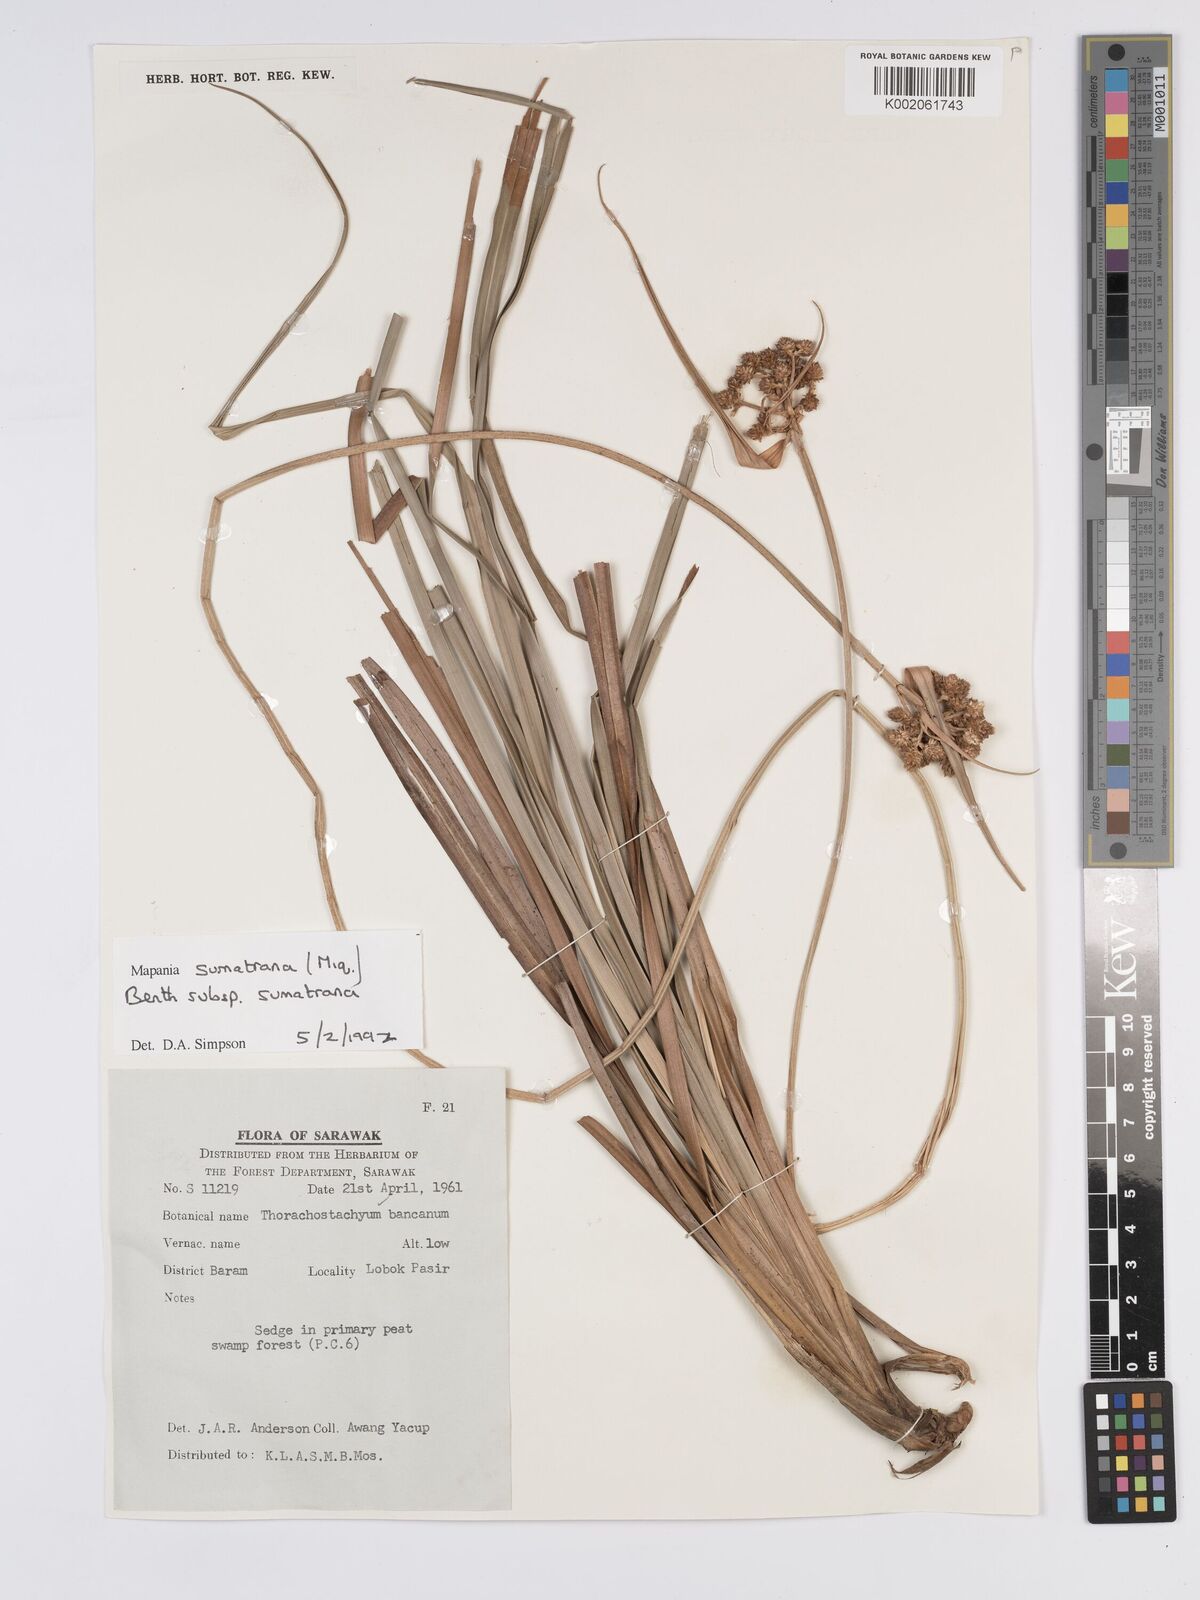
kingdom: Plantae
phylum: Tracheophyta
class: Liliopsida
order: Poales
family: Cyperaceae
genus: Mapania
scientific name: Mapania sumatrana
